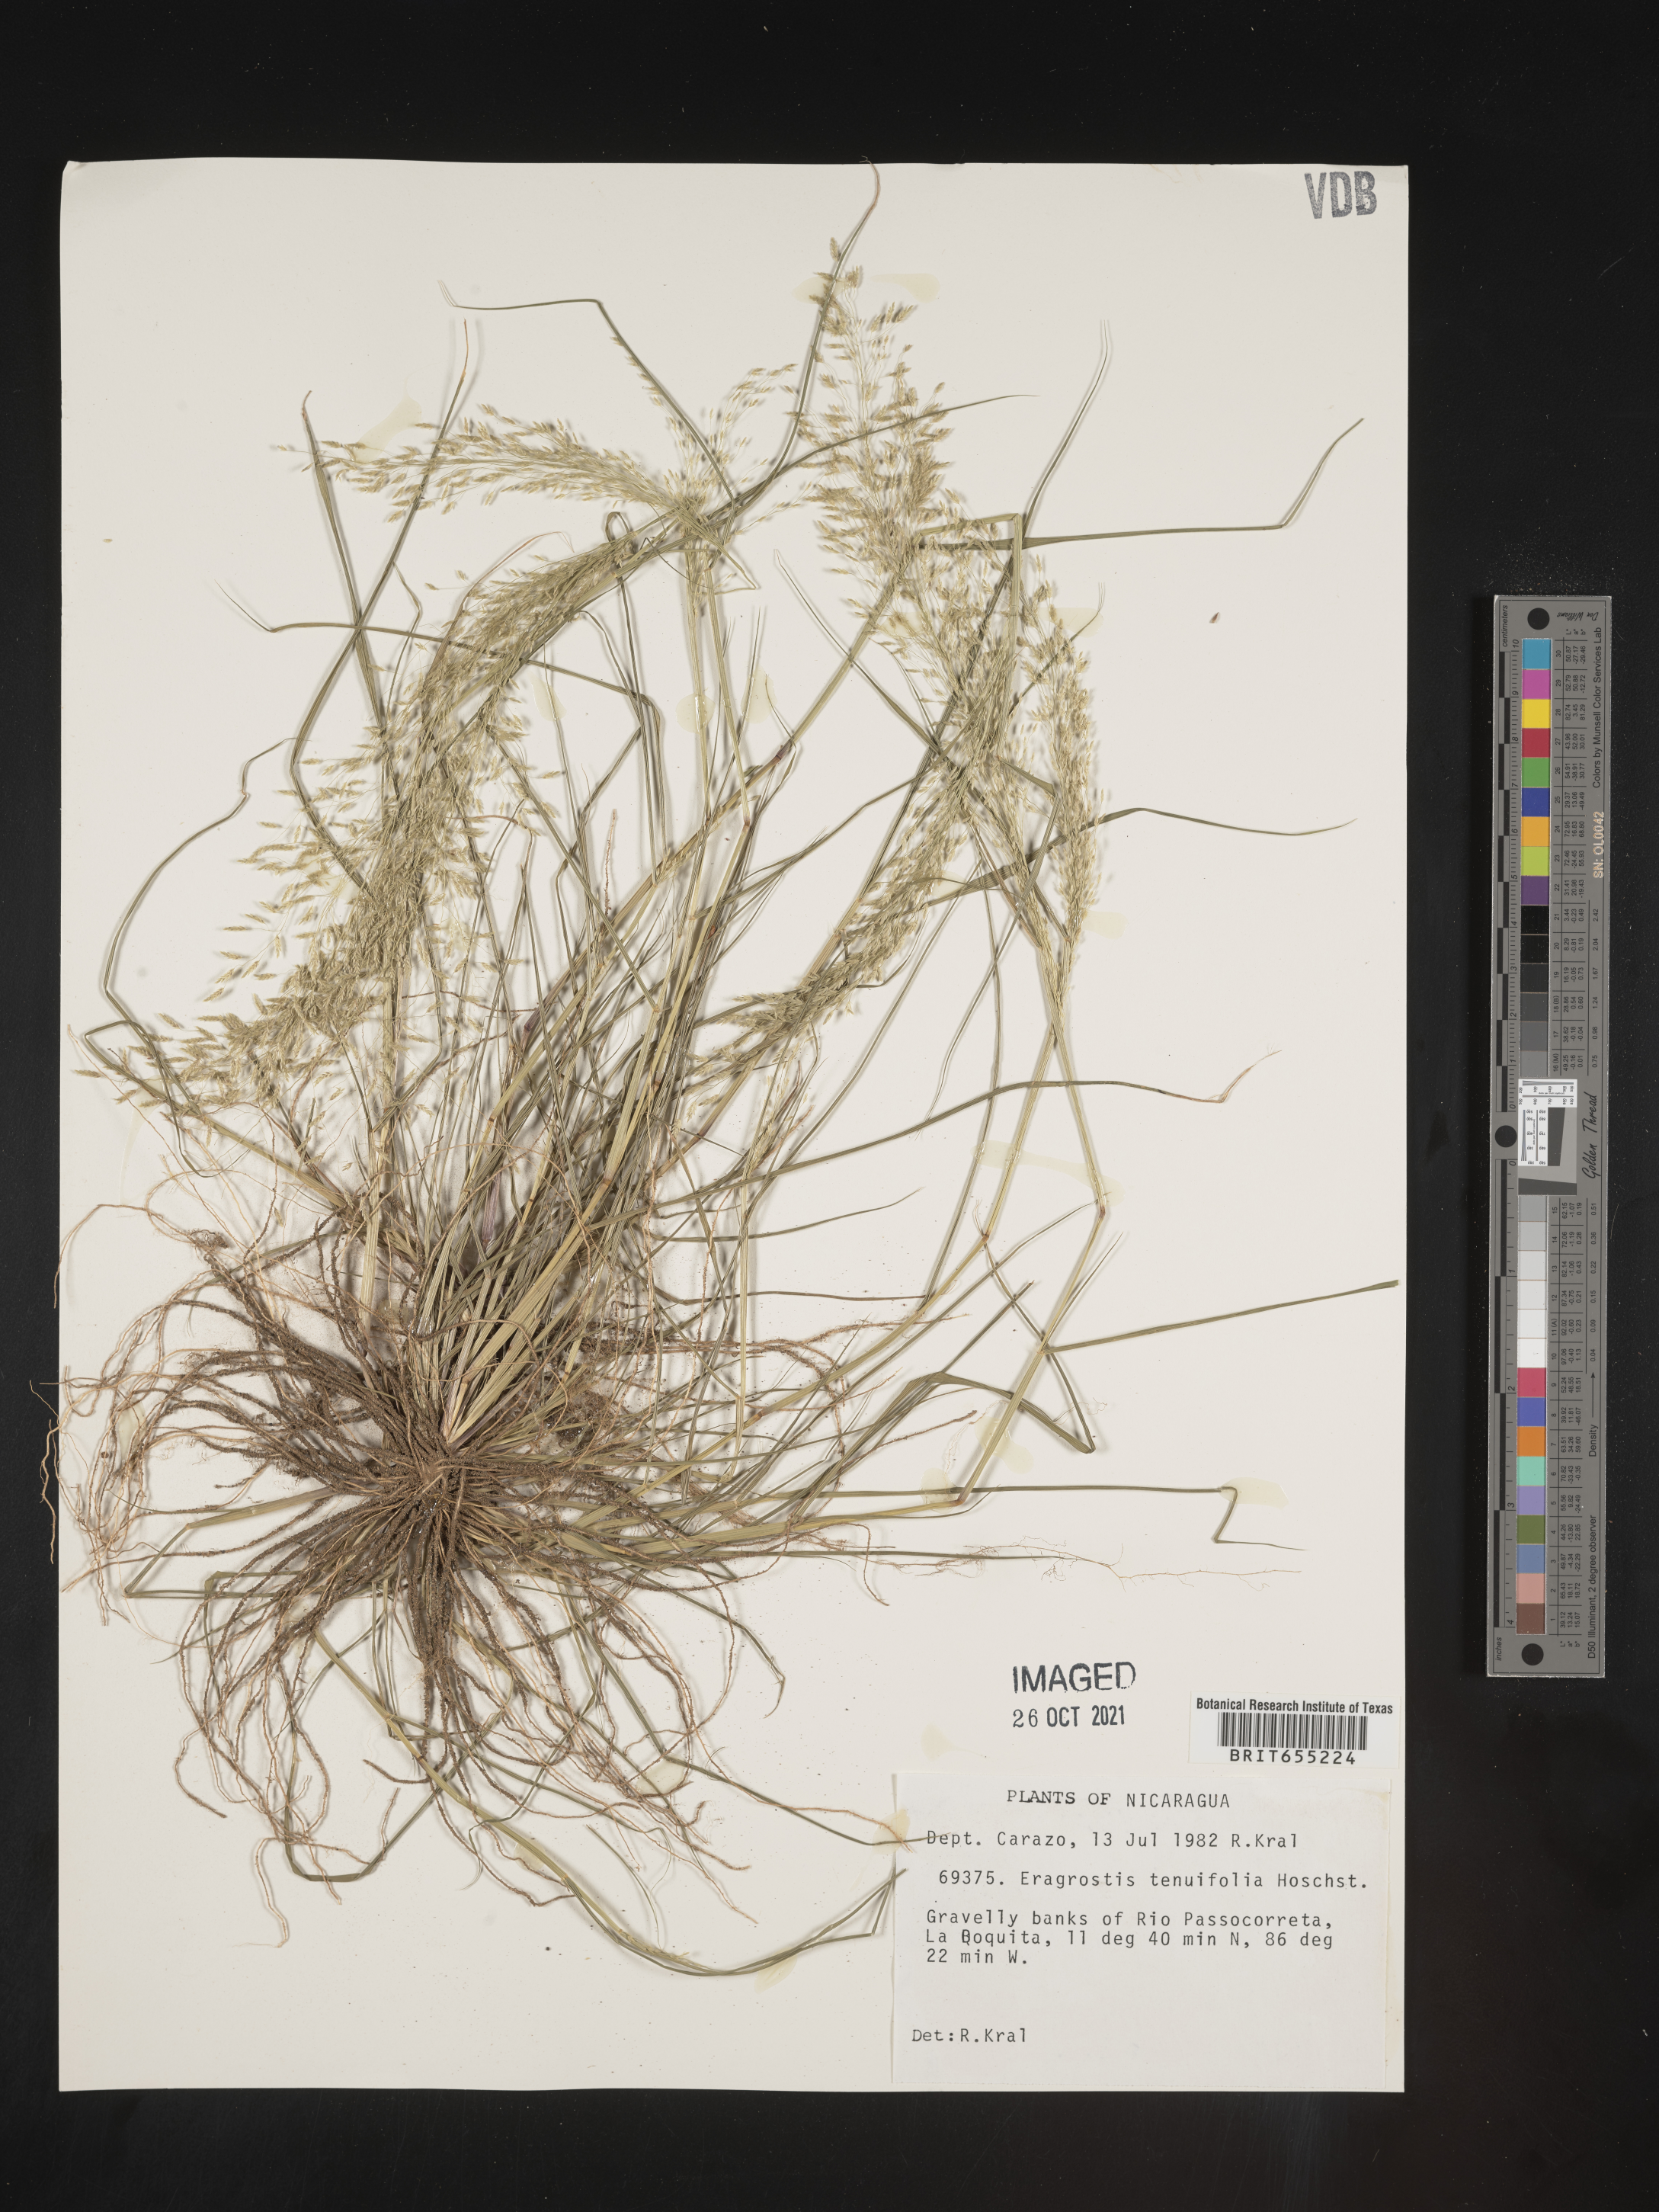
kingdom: Plantae
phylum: Tracheophyta
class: Liliopsida
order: Poales
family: Poaceae
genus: Eragrostis
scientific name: Eragrostis
